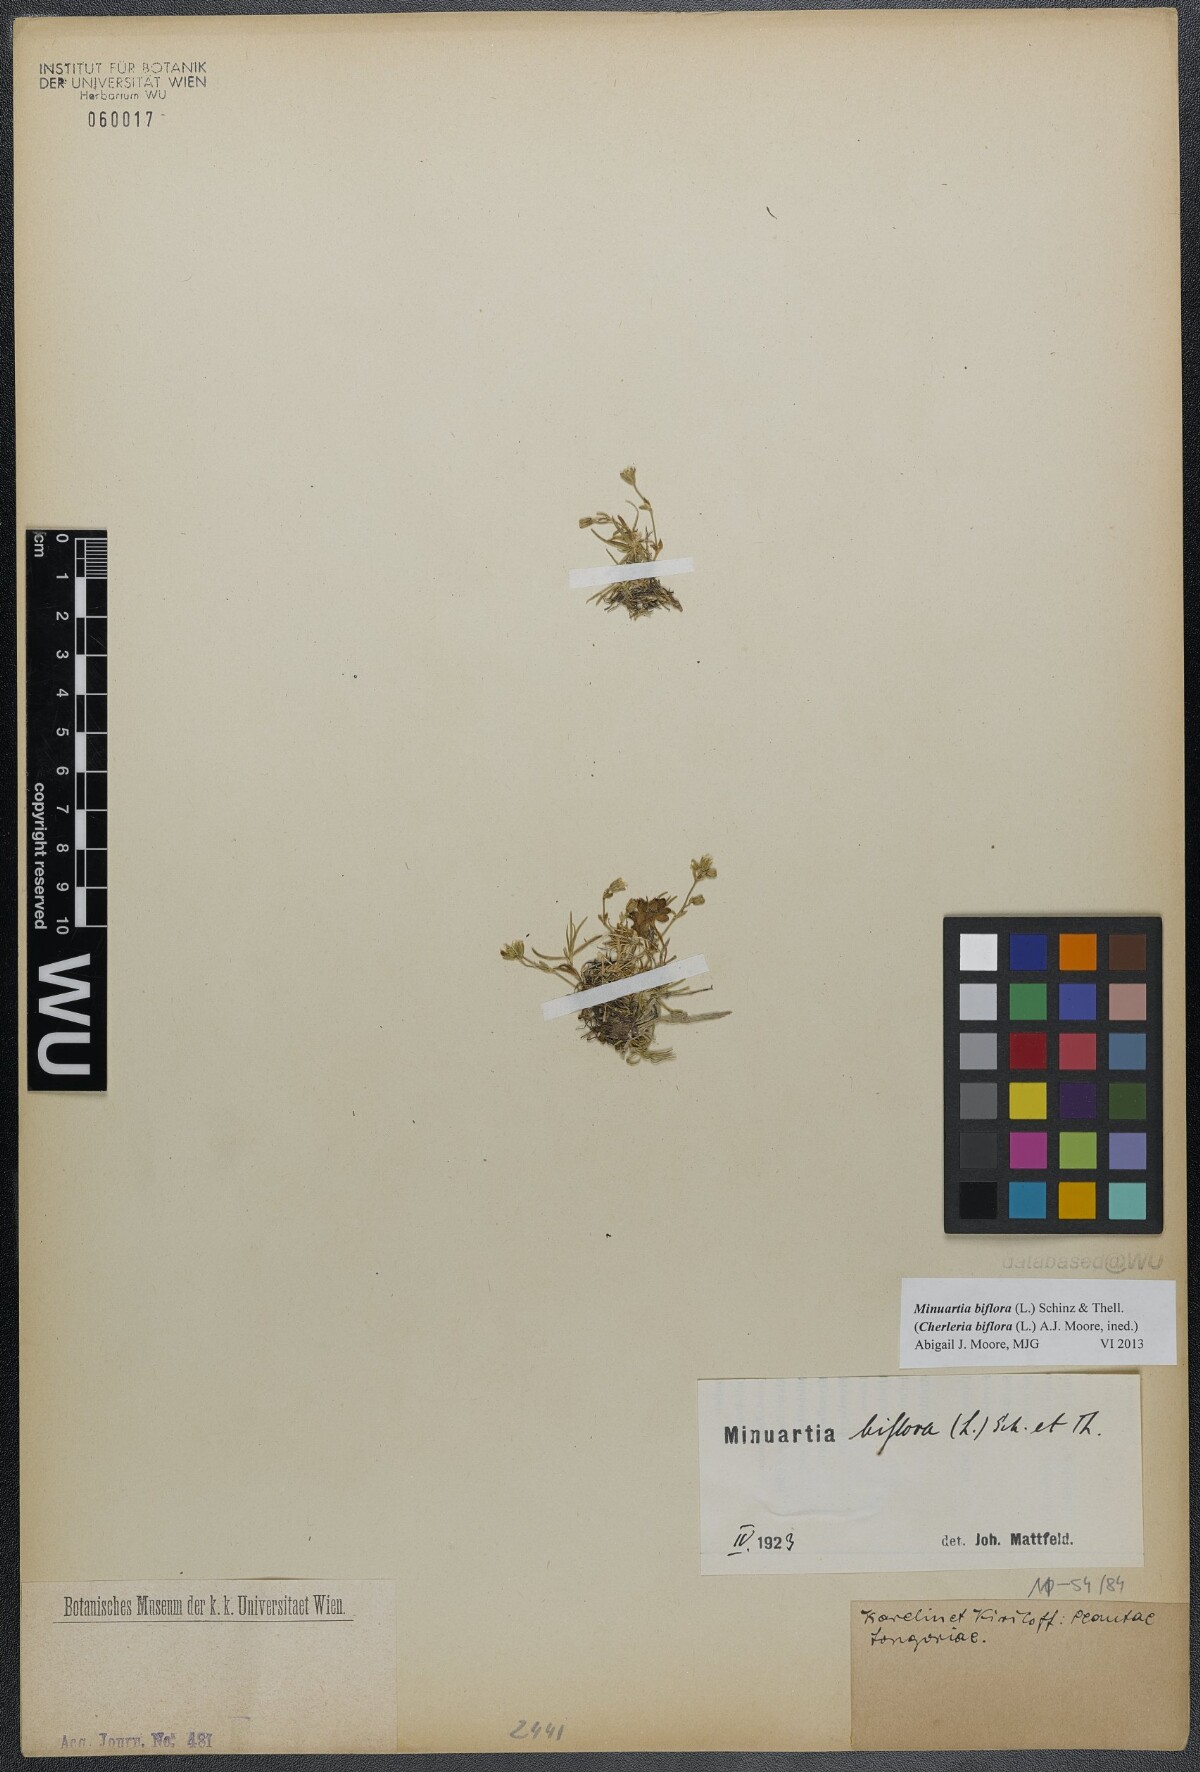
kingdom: Plantae
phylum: Tracheophyta
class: Magnoliopsida
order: Caryophyllales
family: Caryophyllaceae
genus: Cherleria
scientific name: Cherleria biflora
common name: Mountain sandwort
